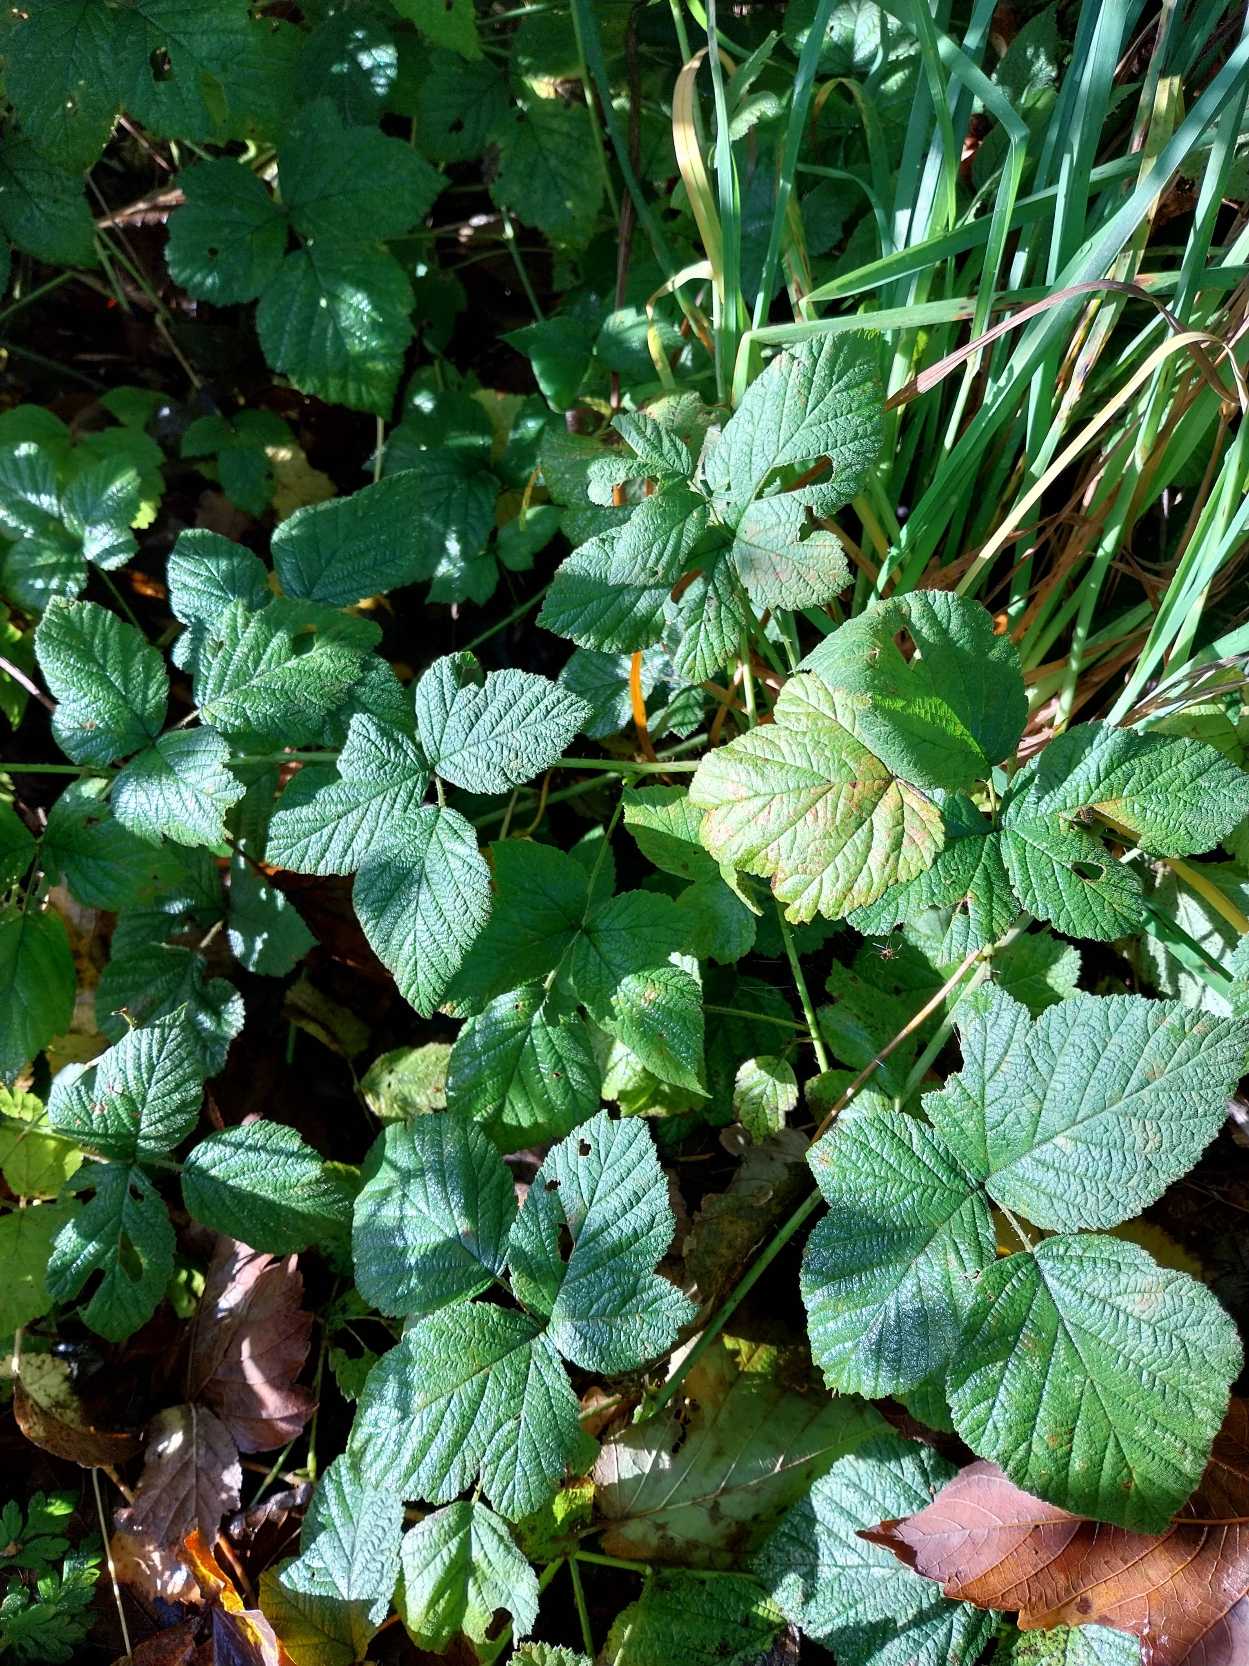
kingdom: Plantae
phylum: Tracheophyta
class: Magnoliopsida
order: Rosales
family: Rosaceae
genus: Rubus
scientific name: Rubus caesius
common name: Korbær
